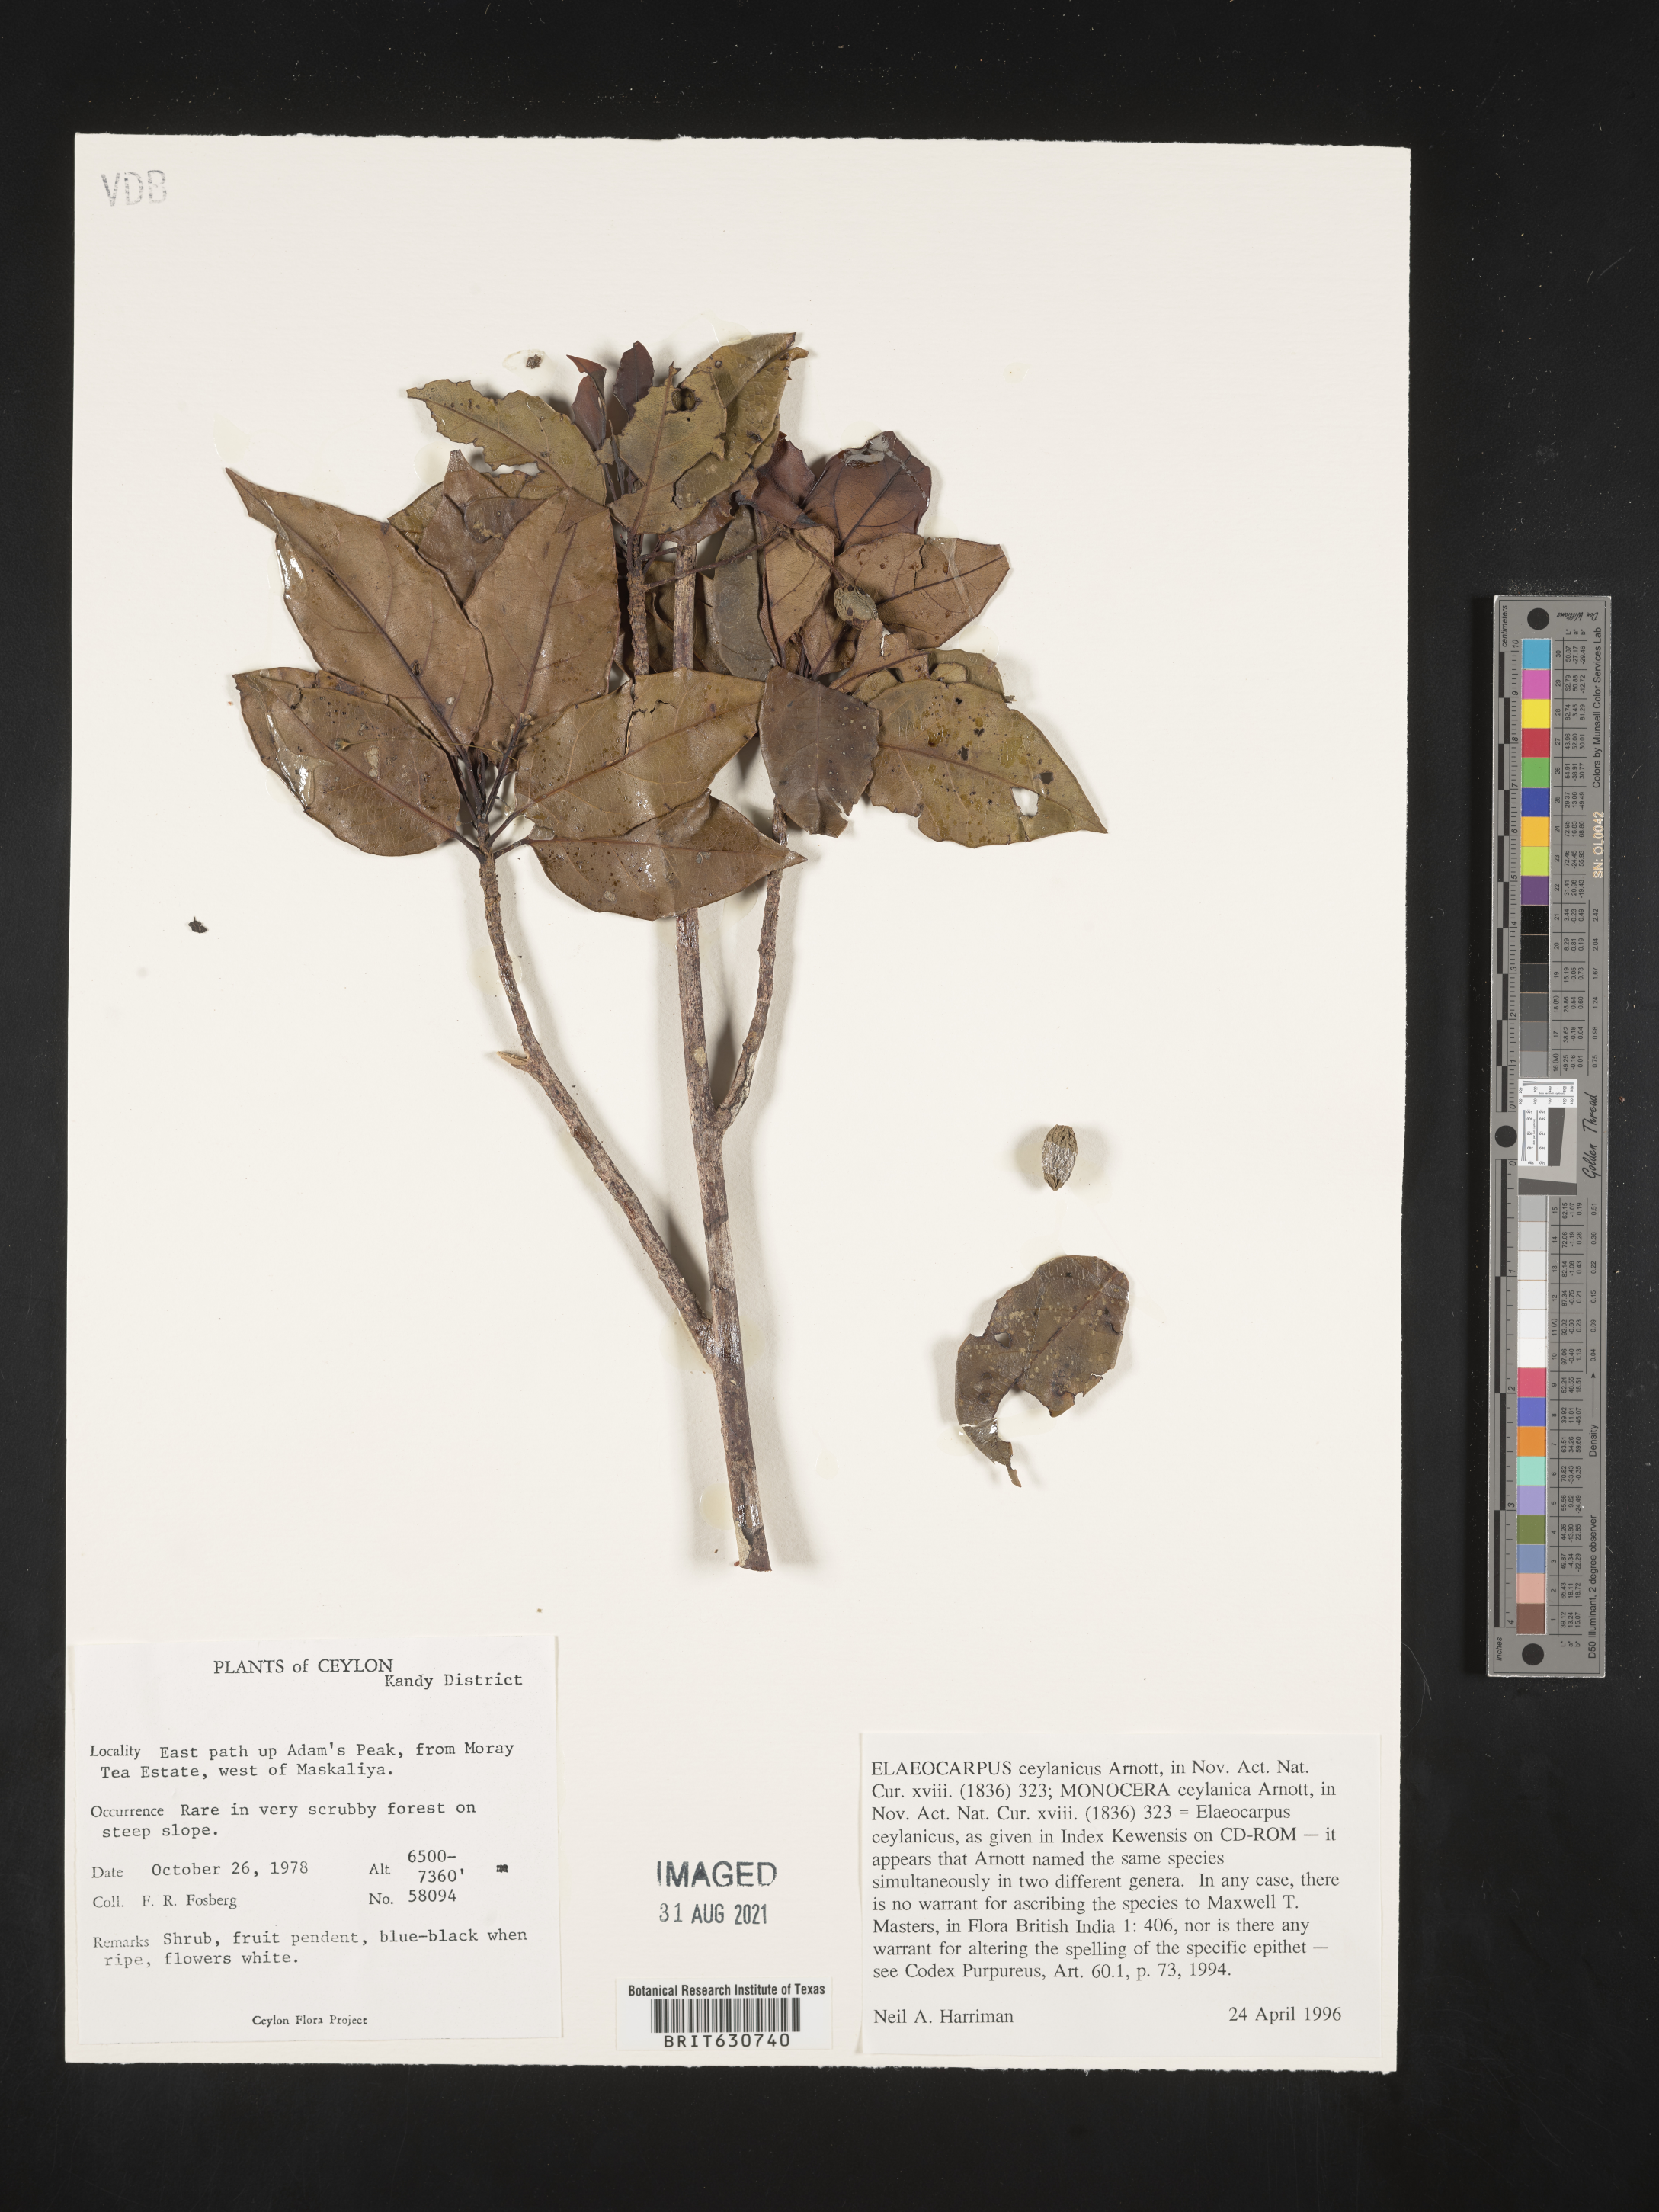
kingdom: Plantae
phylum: Tracheophyta
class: Magnoliopsida
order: Oxalidales
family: Elaeocarpaceae
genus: Elaeocarpus
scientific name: Elaeocarpus
